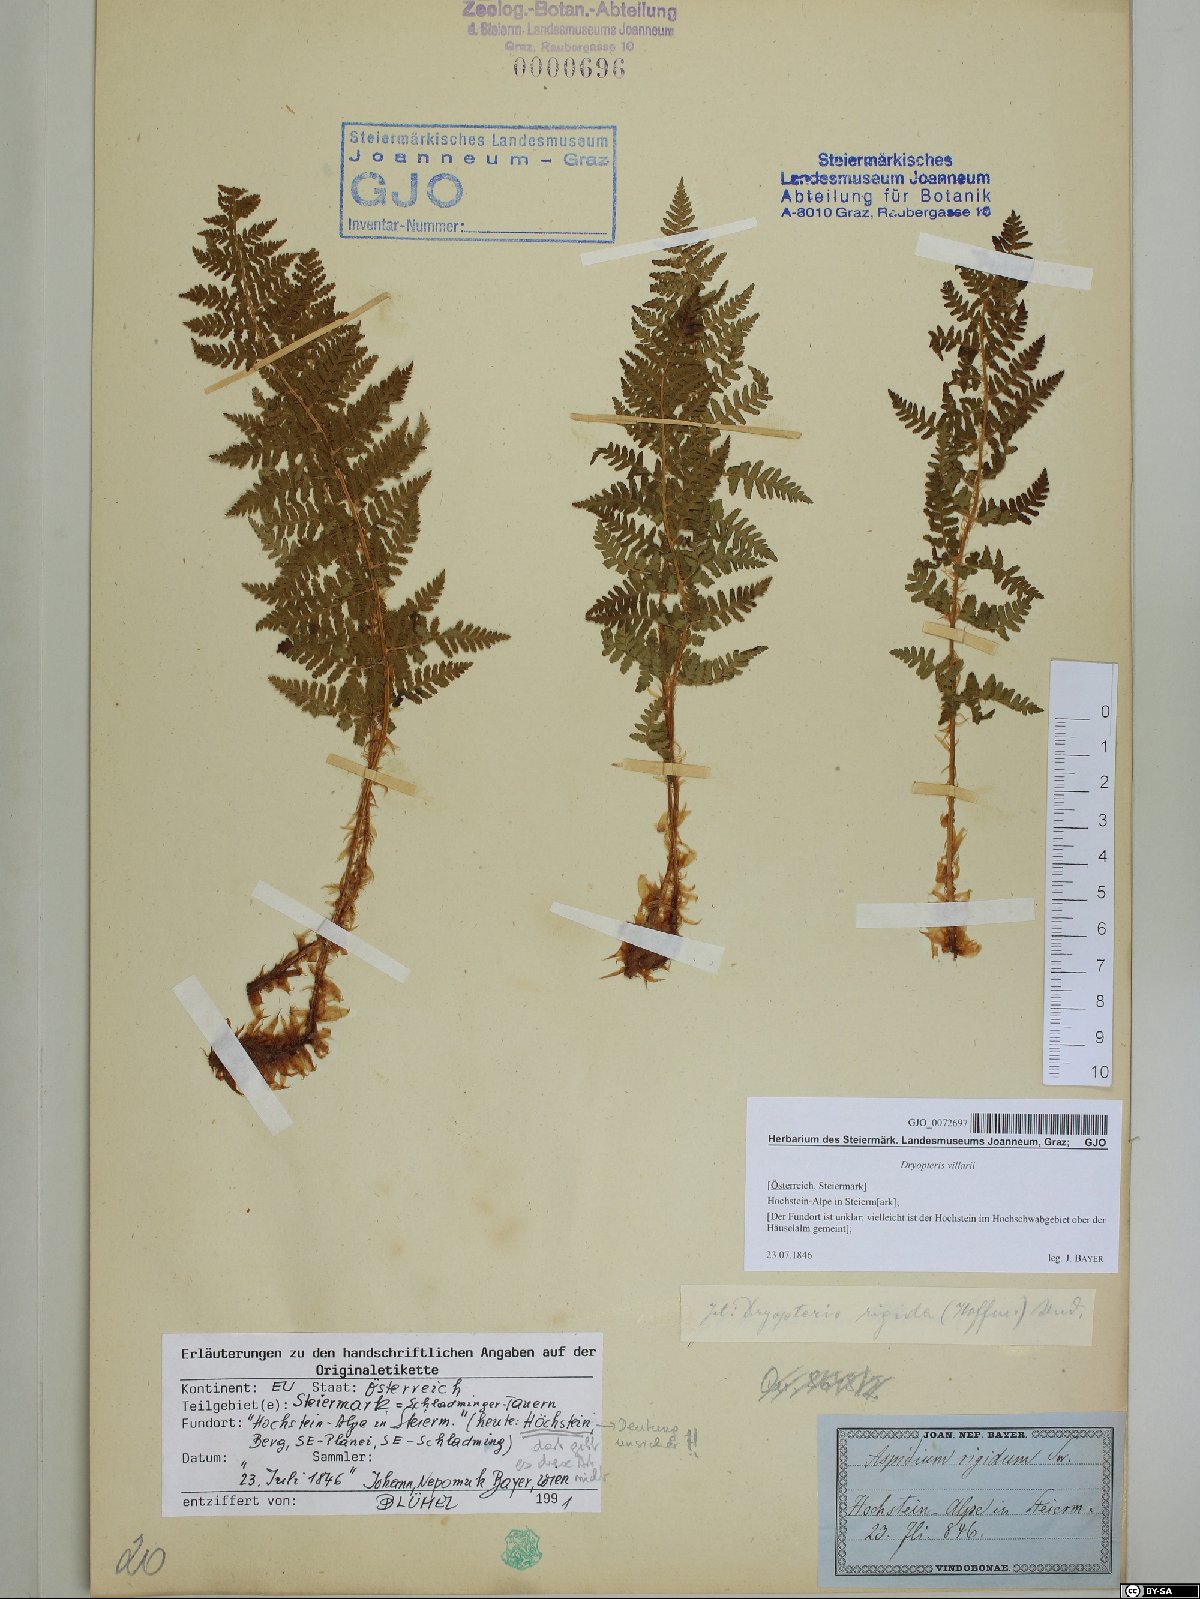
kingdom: Plantae
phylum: Tracheophyta
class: Polypodiopsida
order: Polypodiales
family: Dryopteridaceae
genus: Dryopteris
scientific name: Dryopteris villarii
